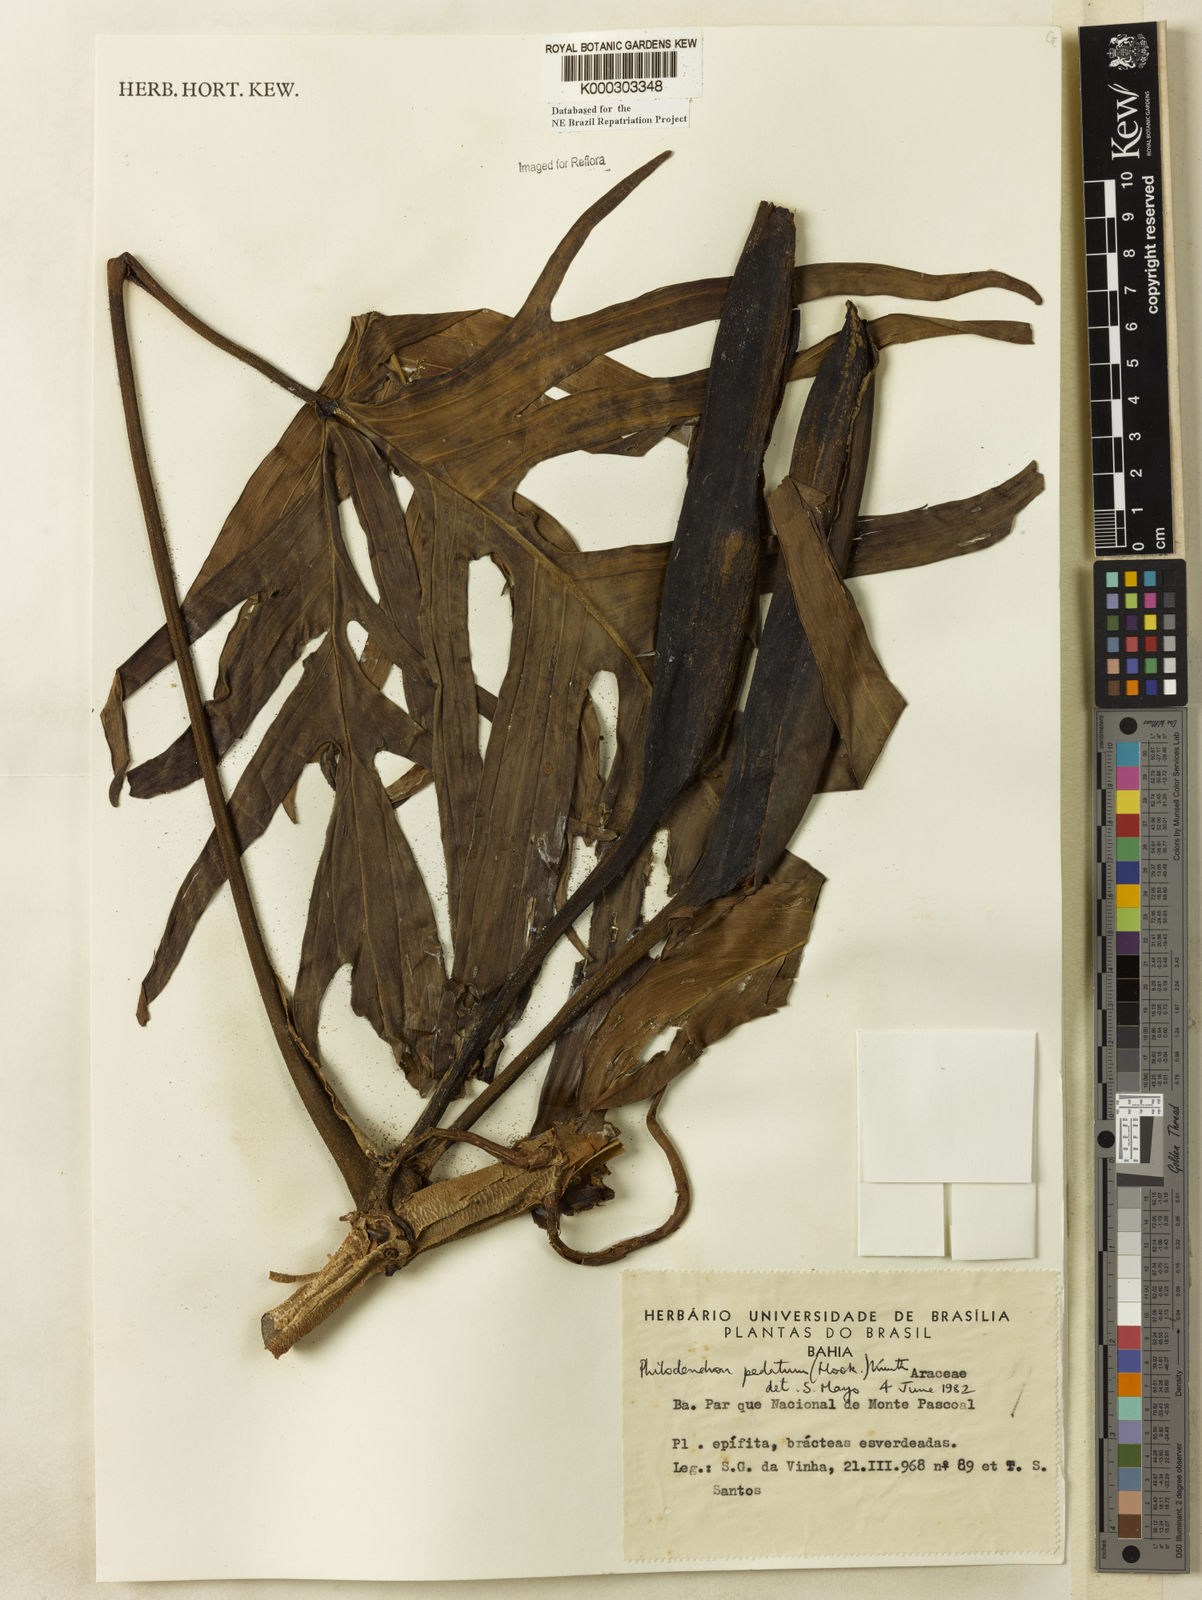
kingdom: Plantae
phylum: Tracheophyta
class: Liliopsida
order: Alismatales
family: Araceae
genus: Philodendron
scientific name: Philodendron pedatum
